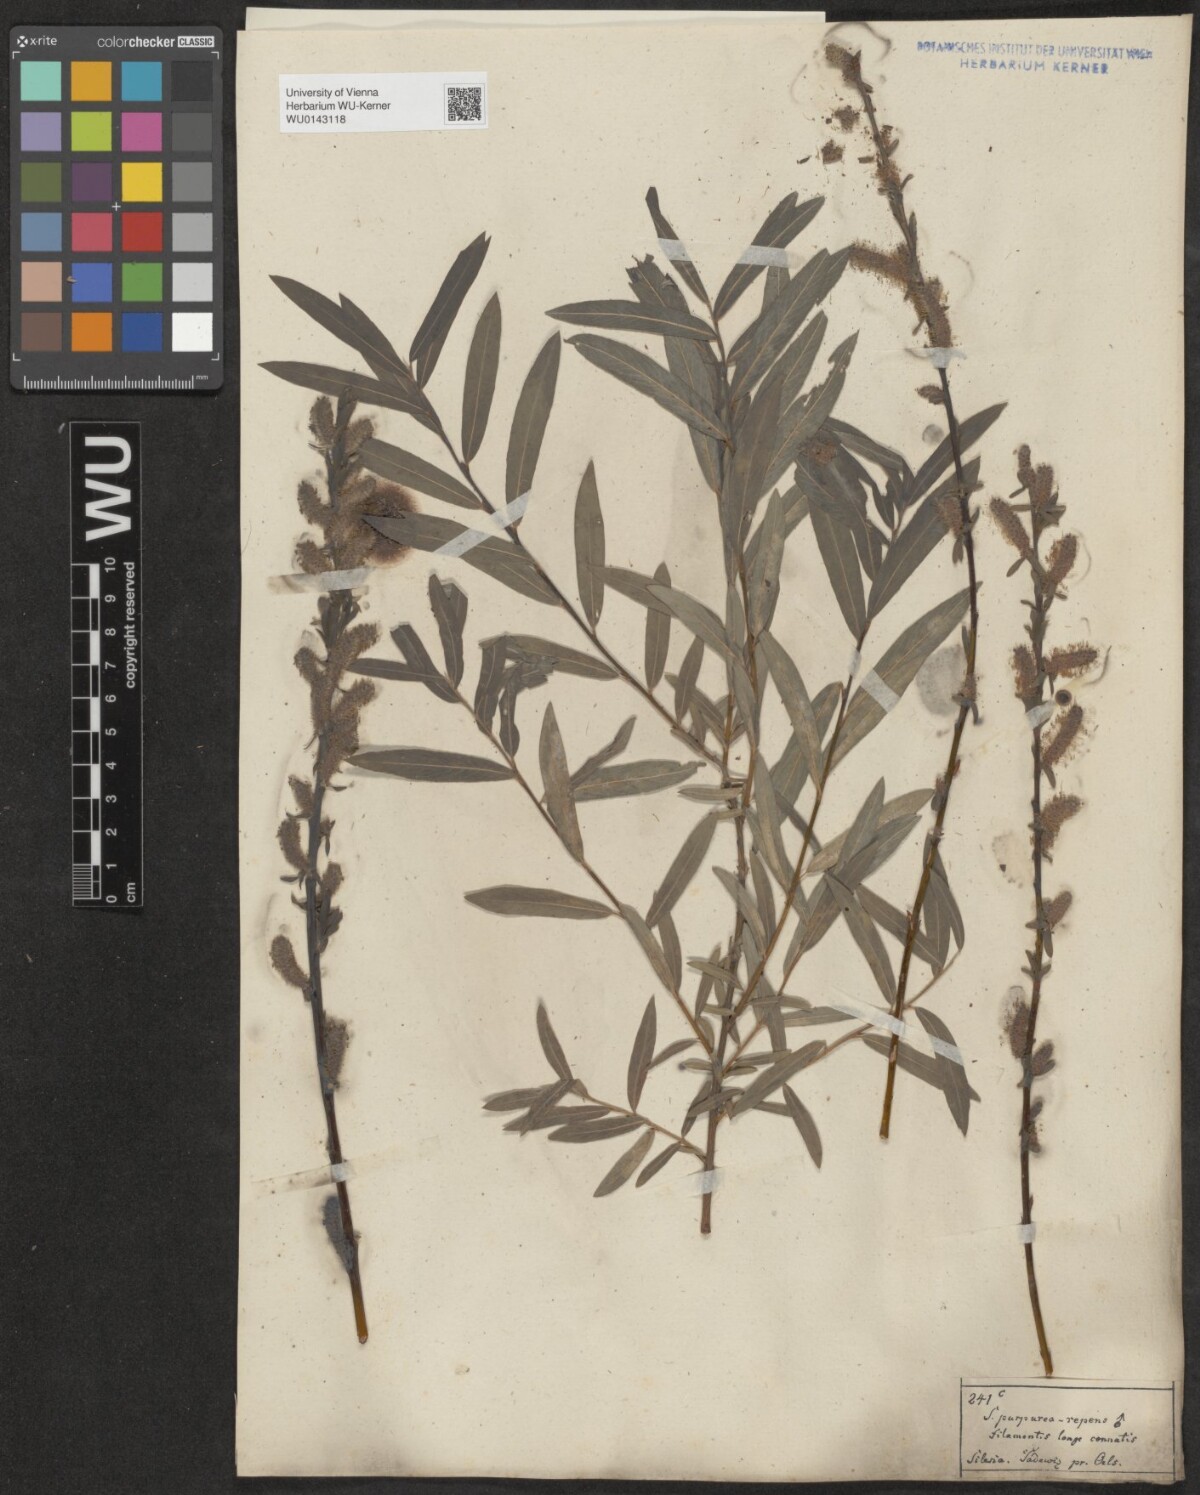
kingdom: Plantae
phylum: Tracheophyta
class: Magnoliopsida
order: Malpighiales
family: Salicaceae
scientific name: Salicaceae
